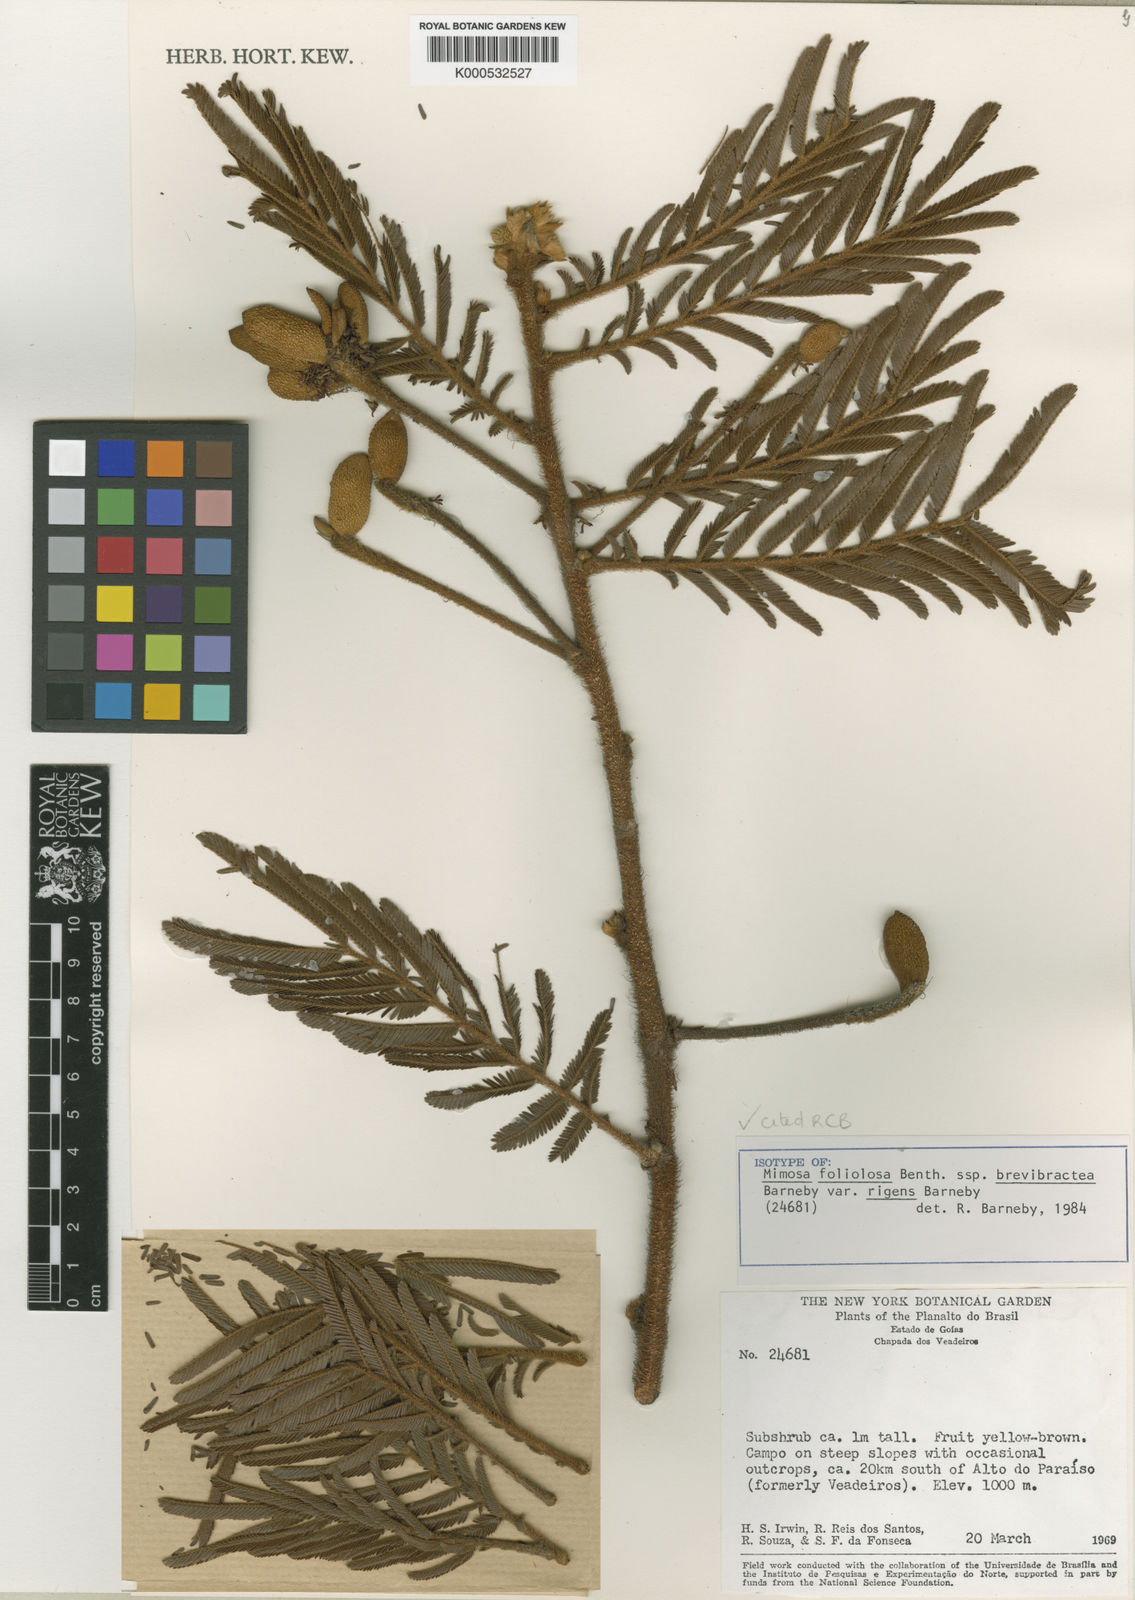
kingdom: Plantae
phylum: Tracheophyta
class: Magnoliopsida
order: Fabales
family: Fabaceae
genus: Mimosa
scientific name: Mimosa foliolosa
